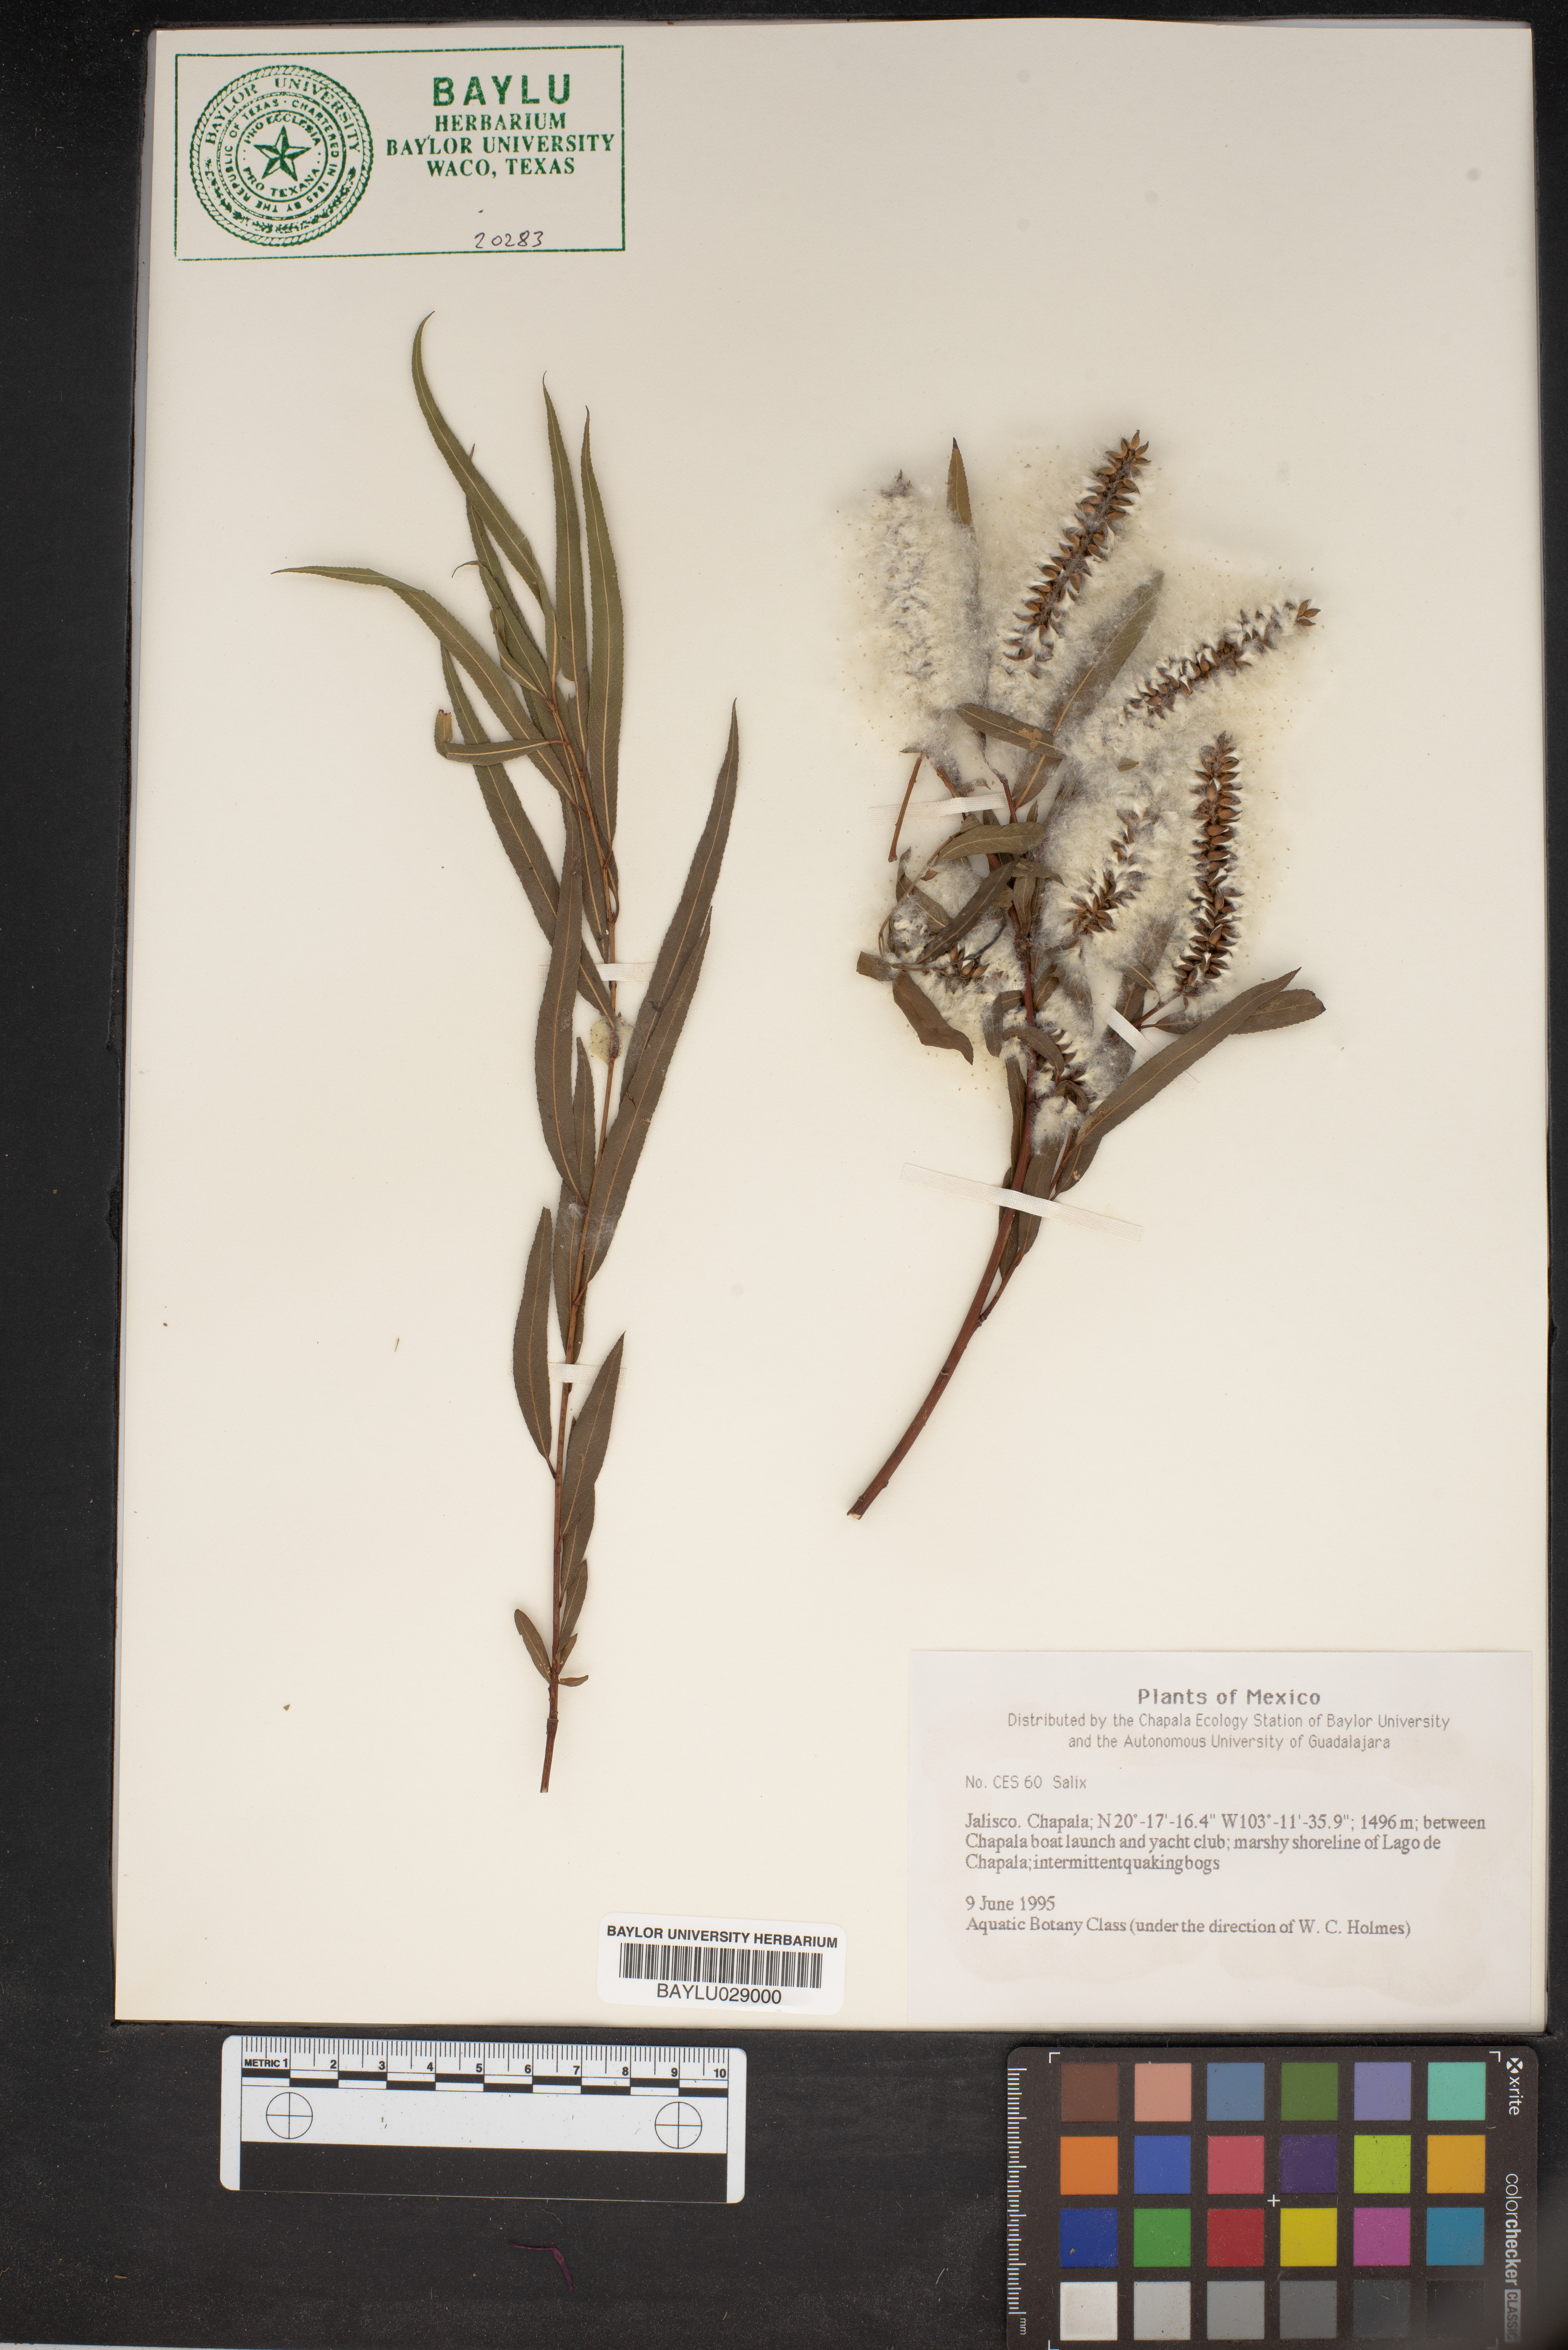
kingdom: Plantae
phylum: Tracheophyta
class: Magnoliopsida
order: Malpighiales
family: Salicaceae
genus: Salix
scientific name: Salix
